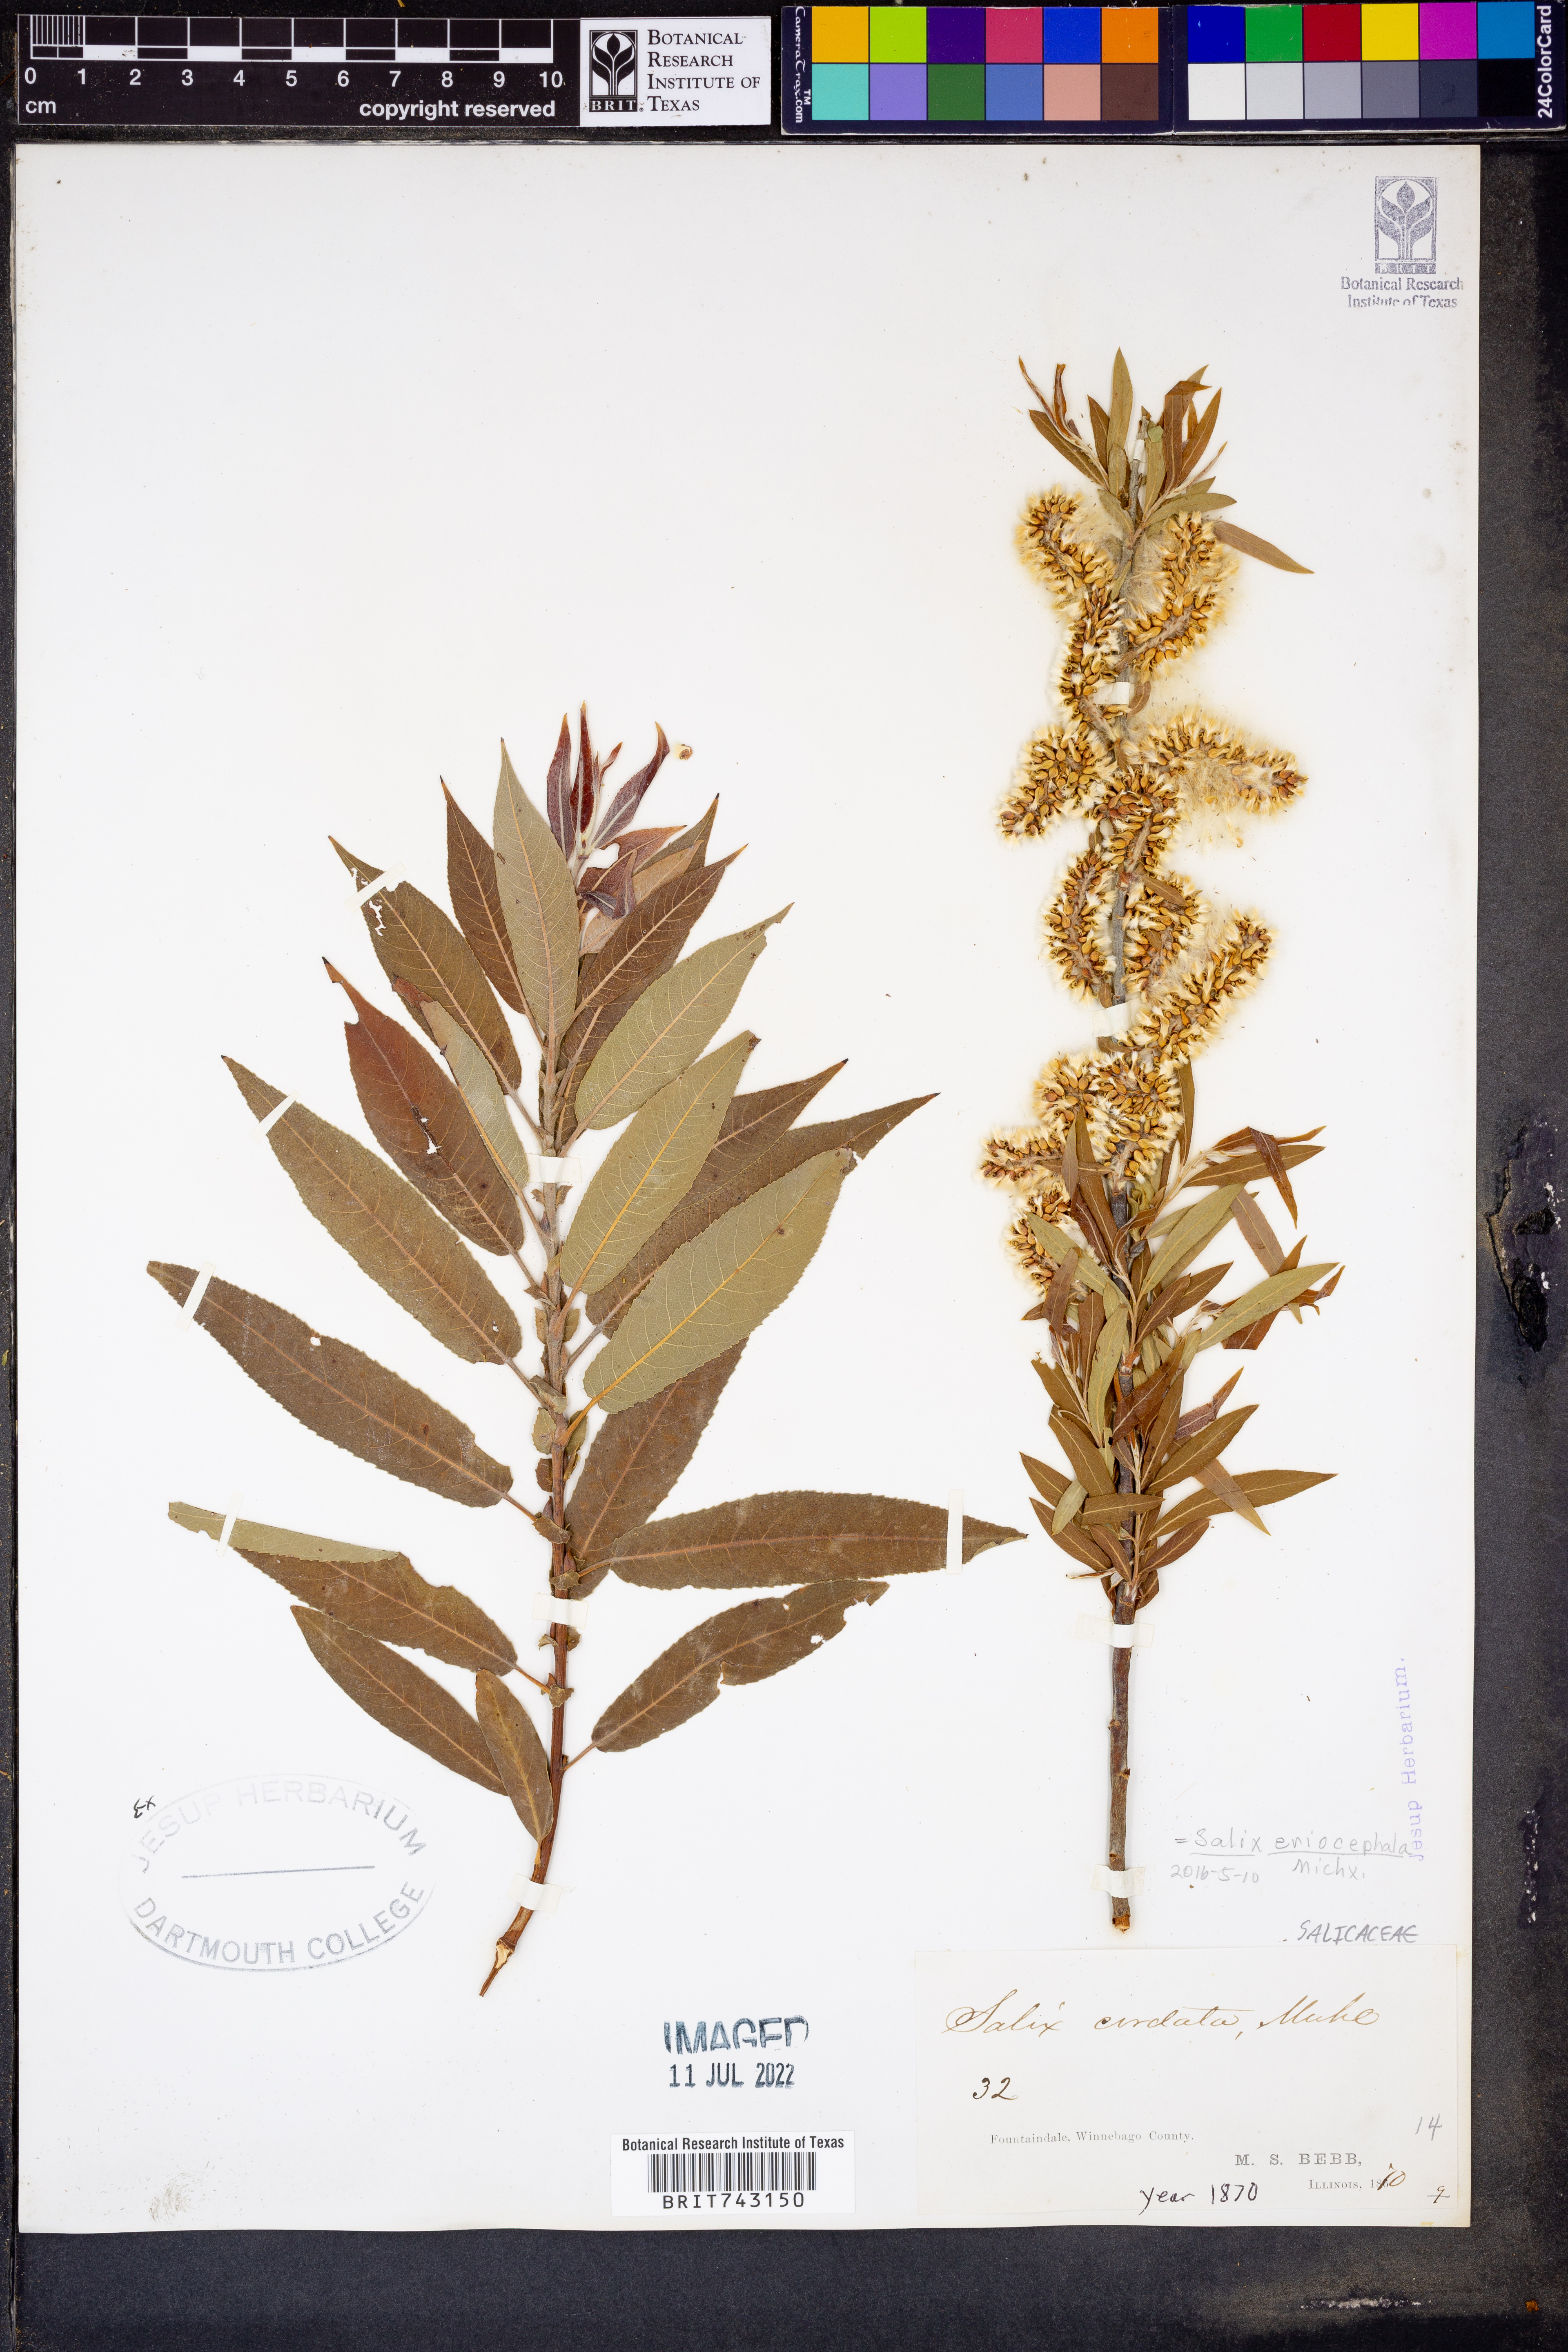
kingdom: Plantae
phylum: Tracheophyta
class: Magnoliopsida
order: Malpighiales
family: Salicaceae
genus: Salix
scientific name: Salix eriocephala
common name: Heart-leaved willow
